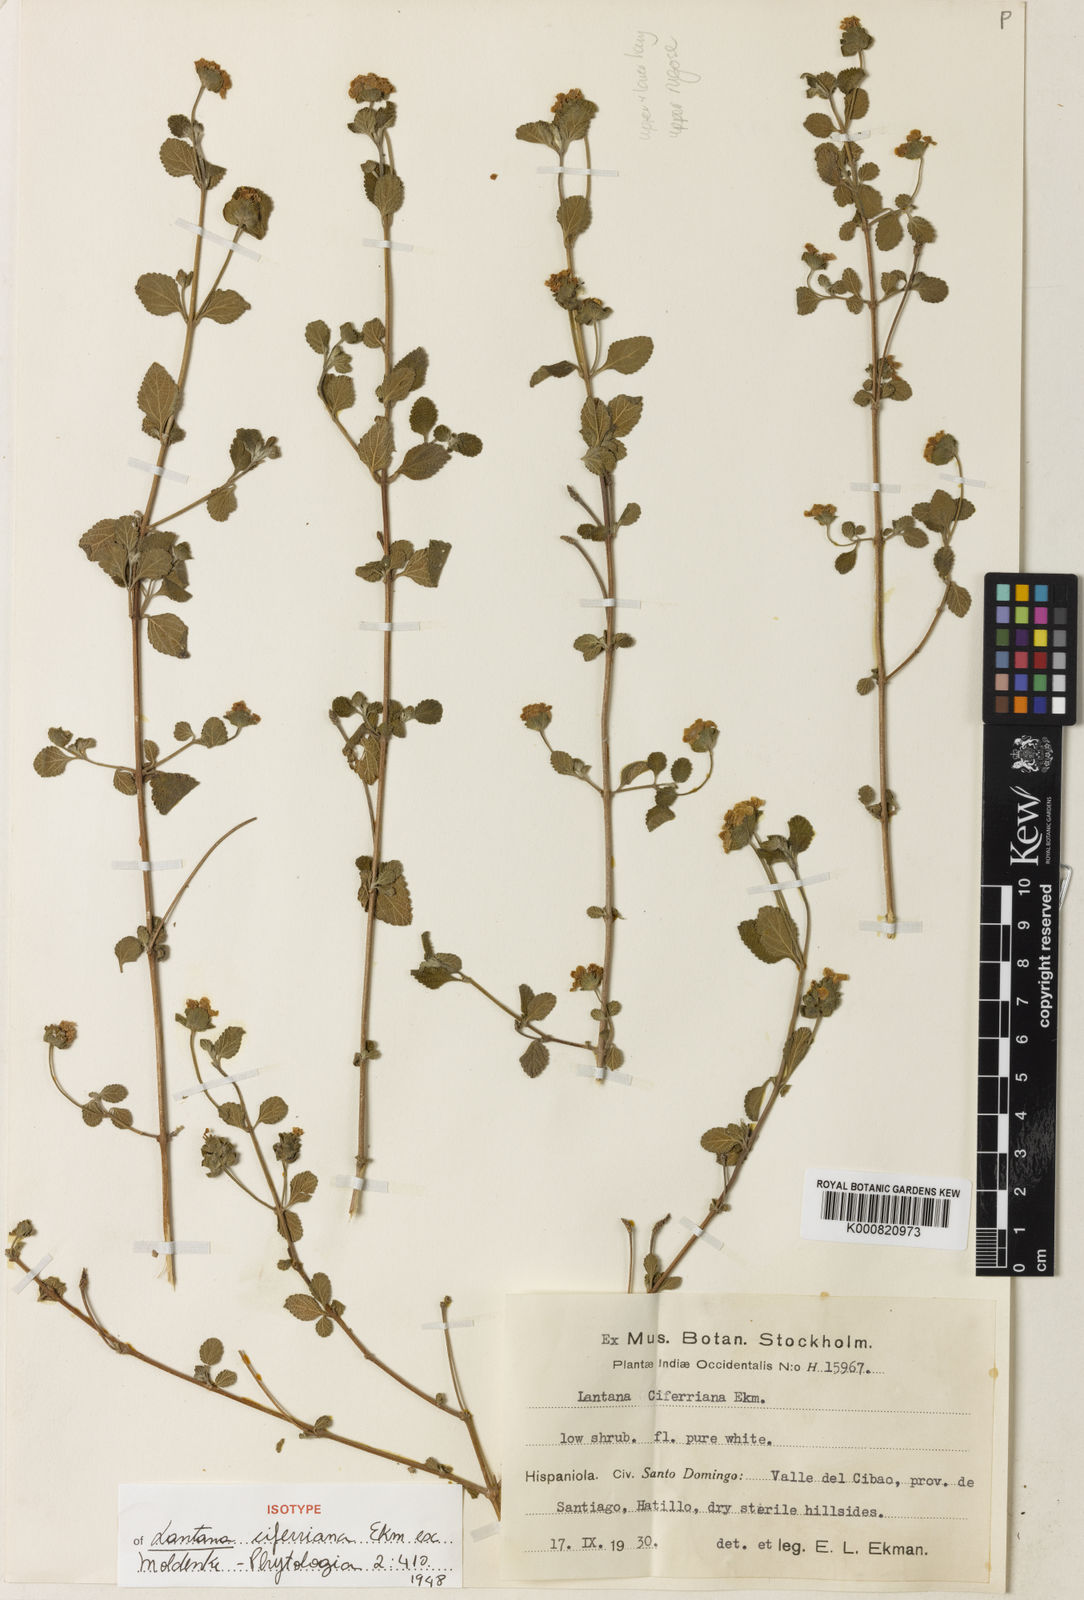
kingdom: Plantae
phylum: Tracheophyta
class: Magnoliopsida
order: Lamiales
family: Verbenaceae
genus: Lantana
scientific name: Lantana ciferriana
